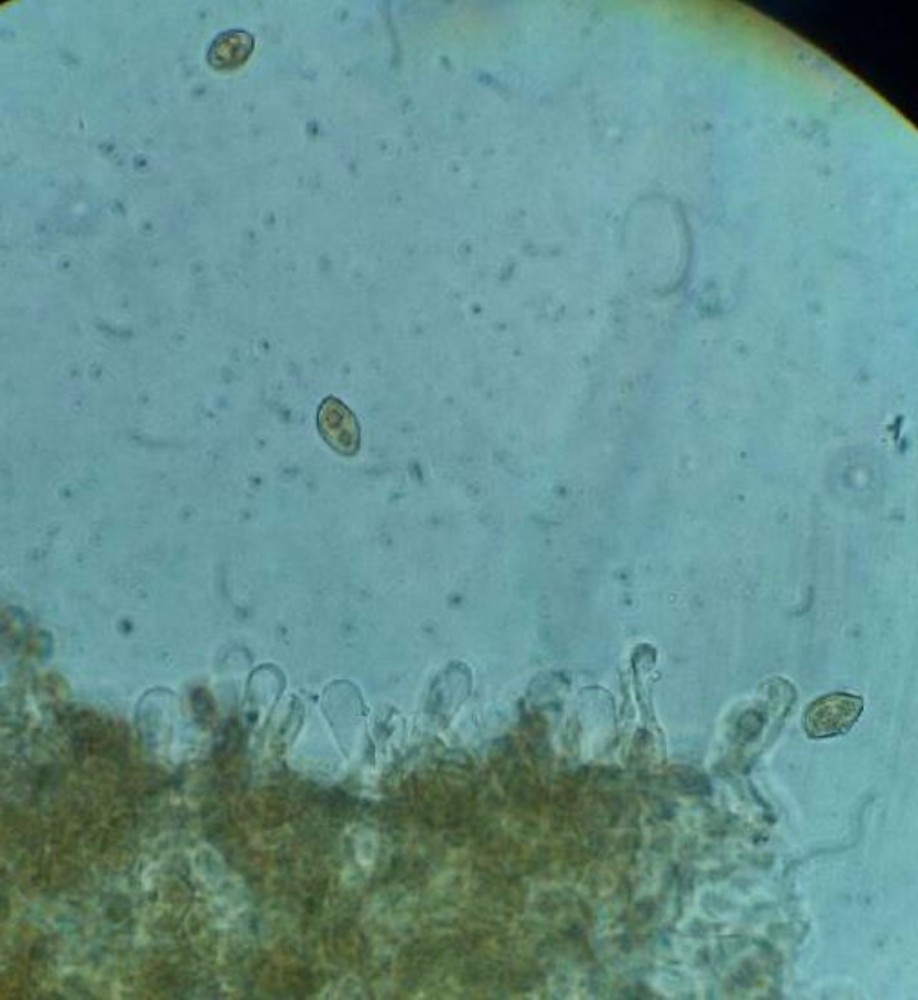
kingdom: Fungi
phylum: Basidiomycota
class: Agaricomycetes
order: Agaricales
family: Hymenogastraceae
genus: Galerina
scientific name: Galerina hypnorum
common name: mos-hjelmhat
